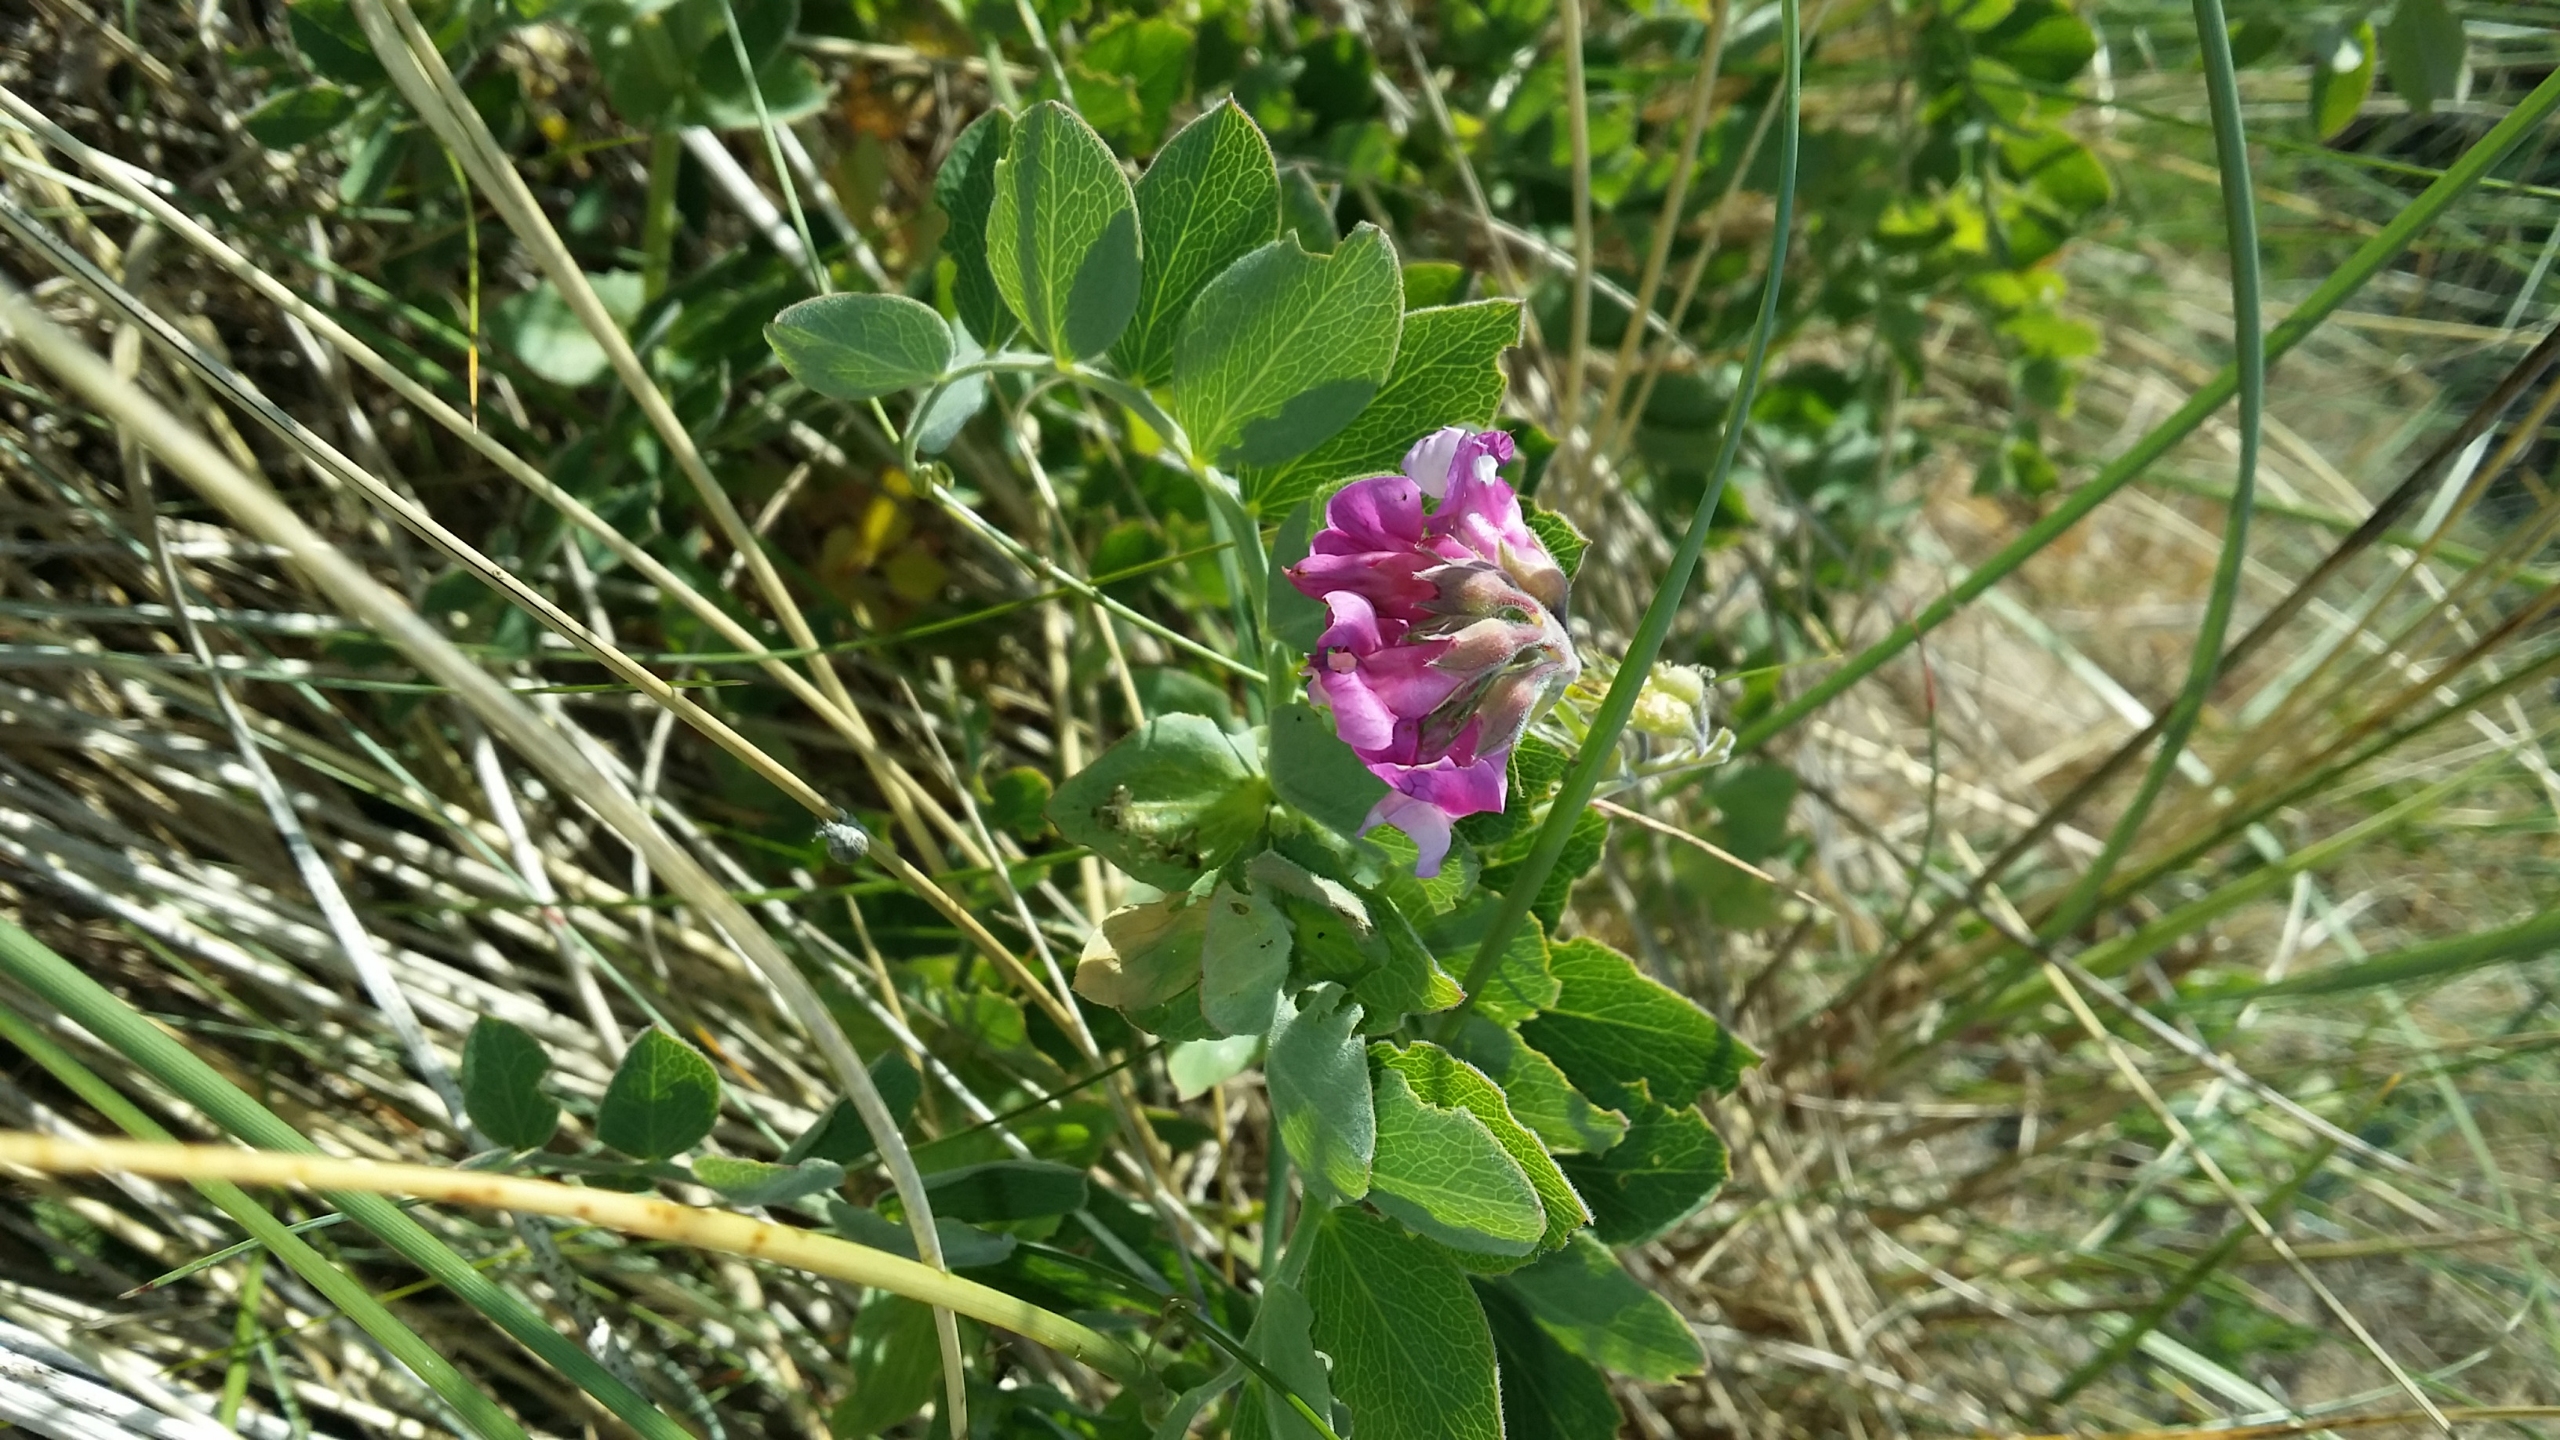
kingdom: Plantae
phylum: Tracheophyta
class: Magnoliopsida
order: Fabales
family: Fabaceae
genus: Lathyrus
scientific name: Lathyrus japonicus
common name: Strand-fladbælg
